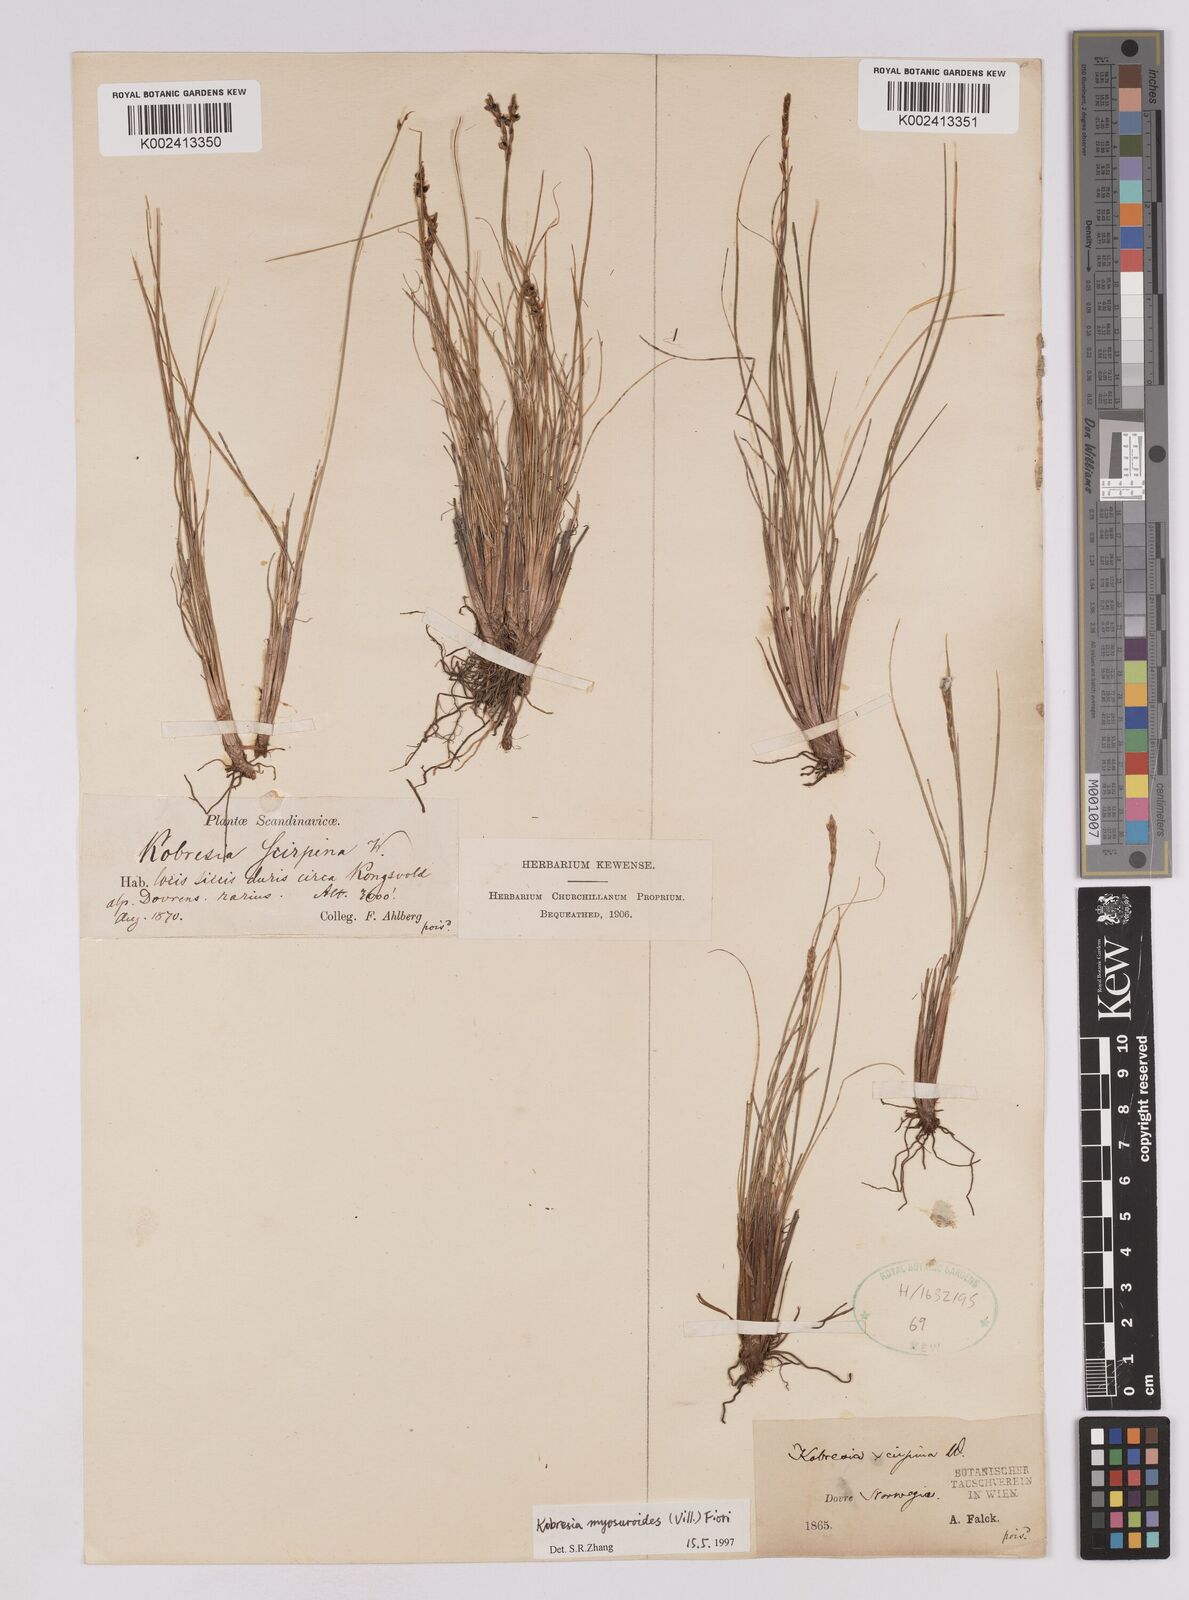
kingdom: Plantae
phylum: Tracheophyta
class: Liliopsida
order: Poales
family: Cyperaceae
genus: Carex
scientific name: Carex myosuroides
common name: Bellard's bog sedge
